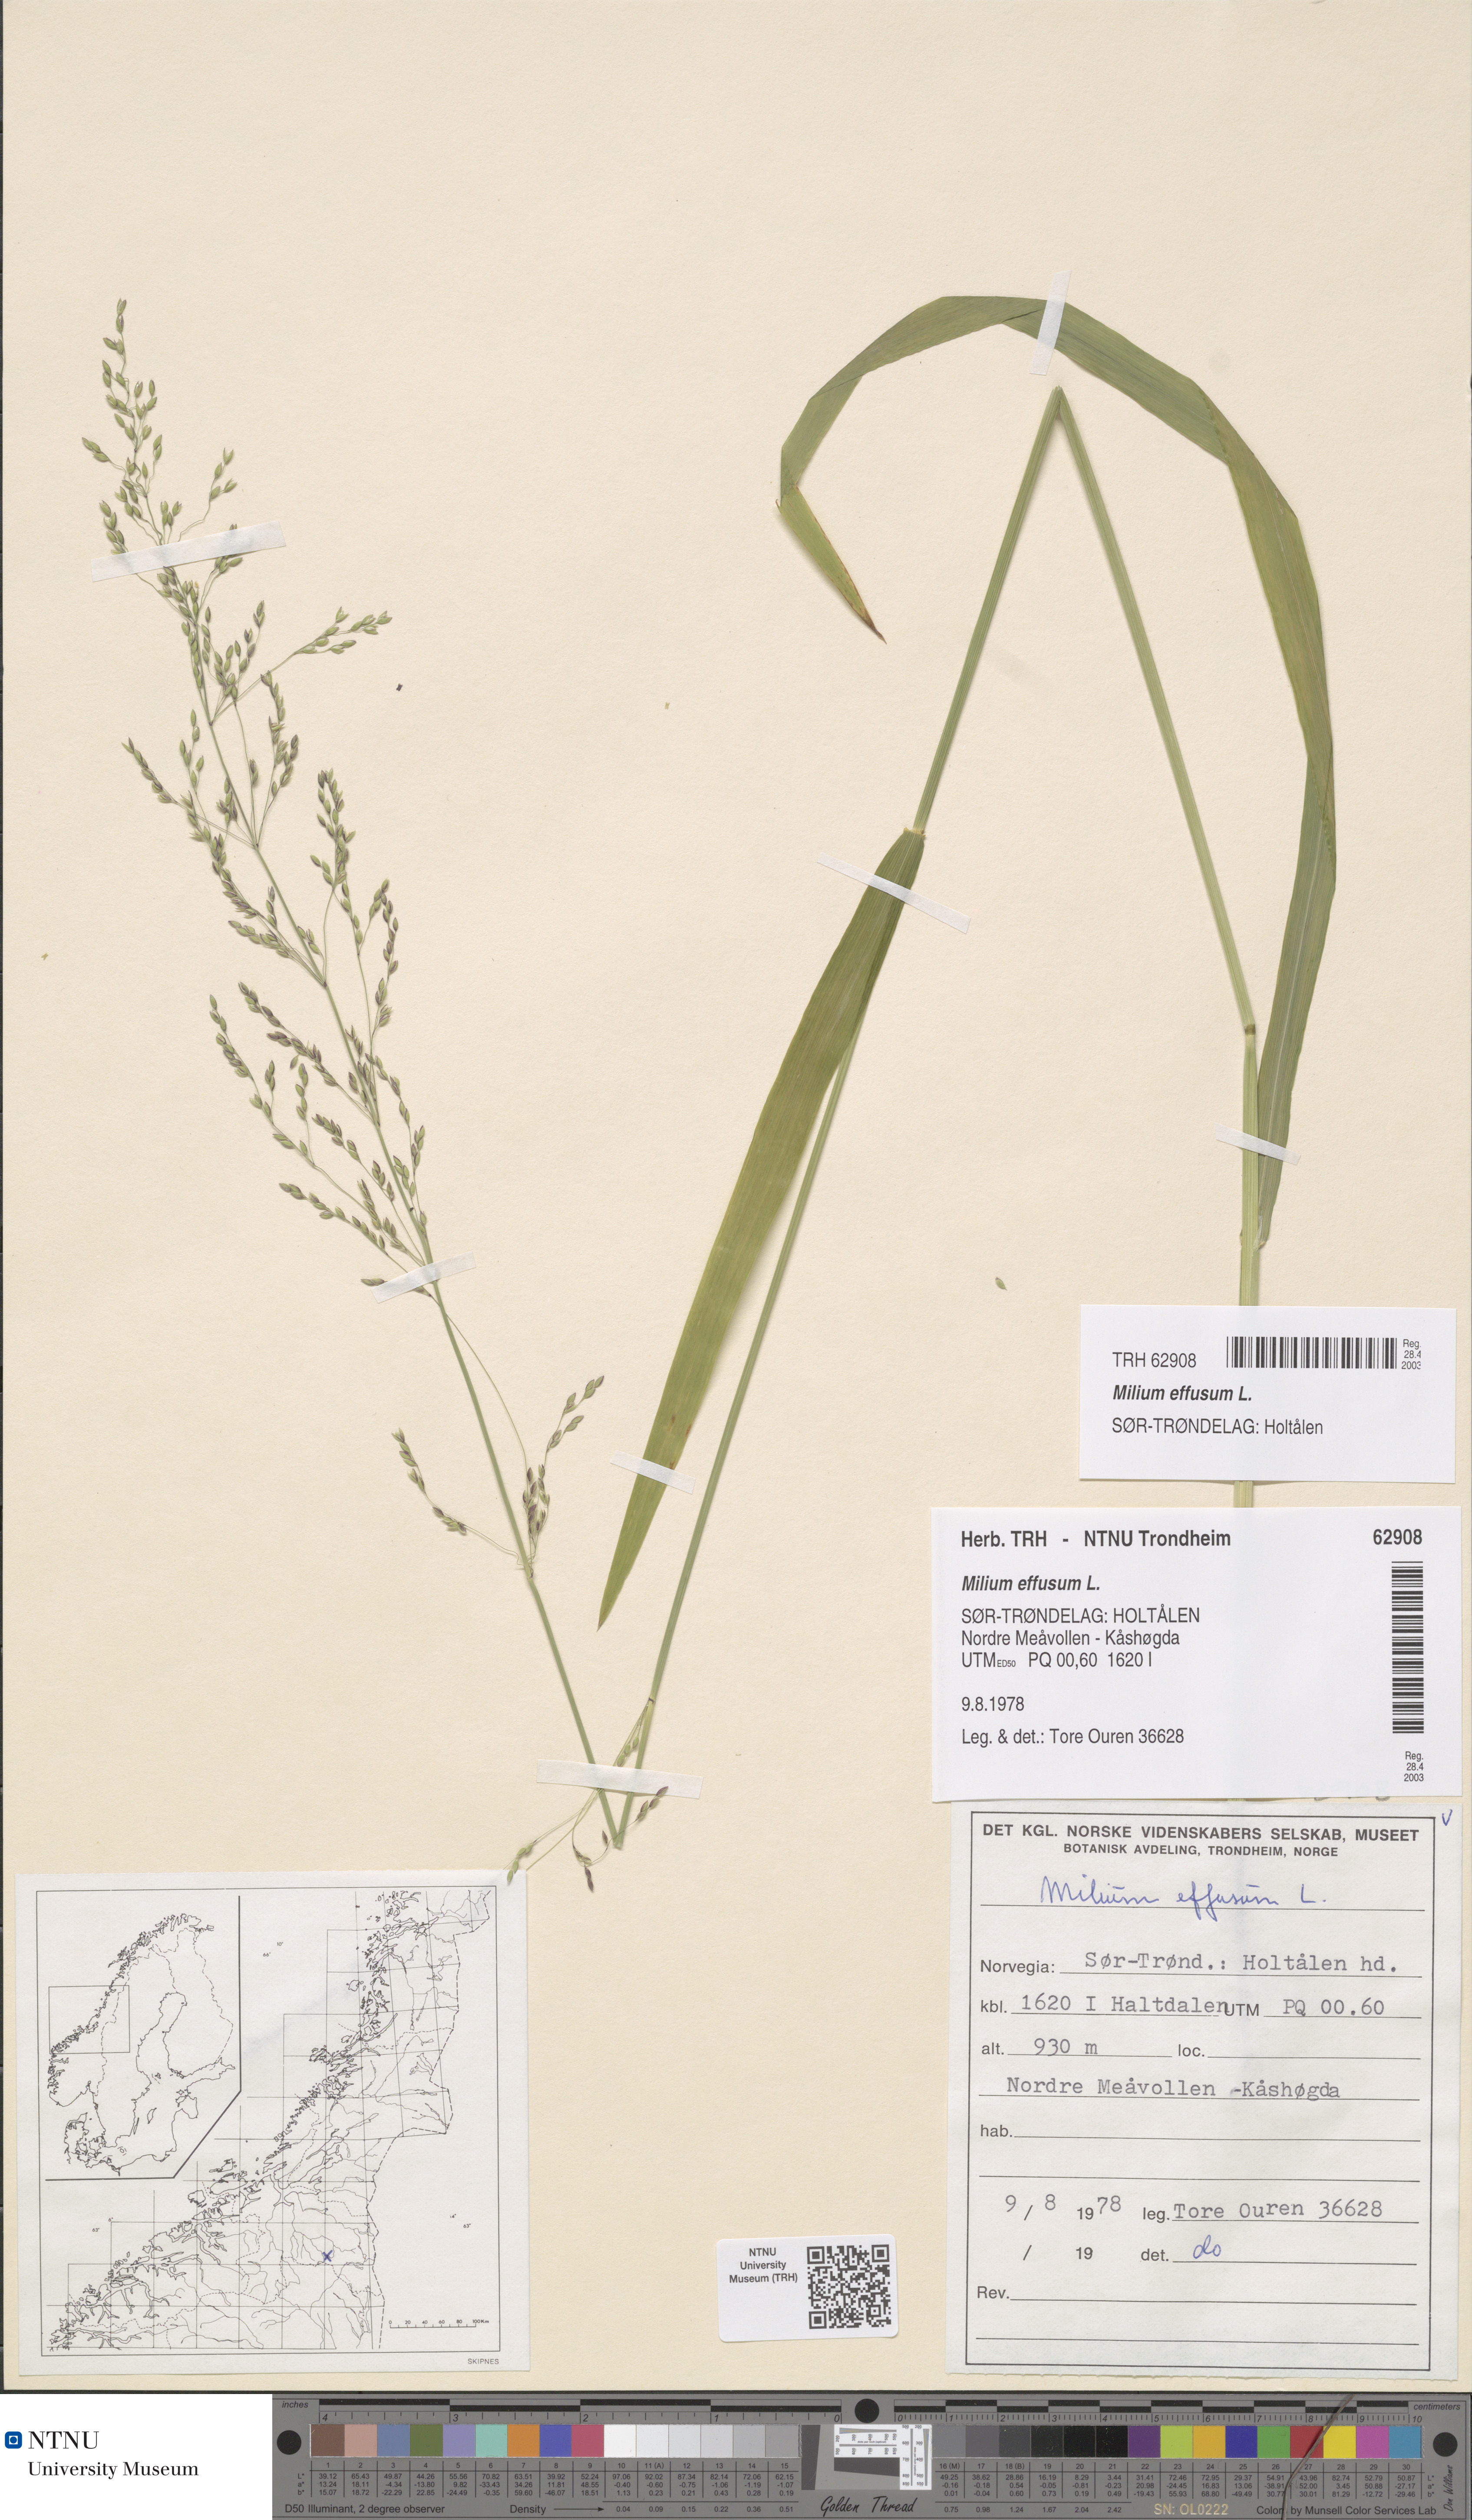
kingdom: Plantae
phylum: Tracheophyta
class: Liliopsida
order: Poales
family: Poaceae
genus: Milium
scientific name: Milium effusum
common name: Wood millet
